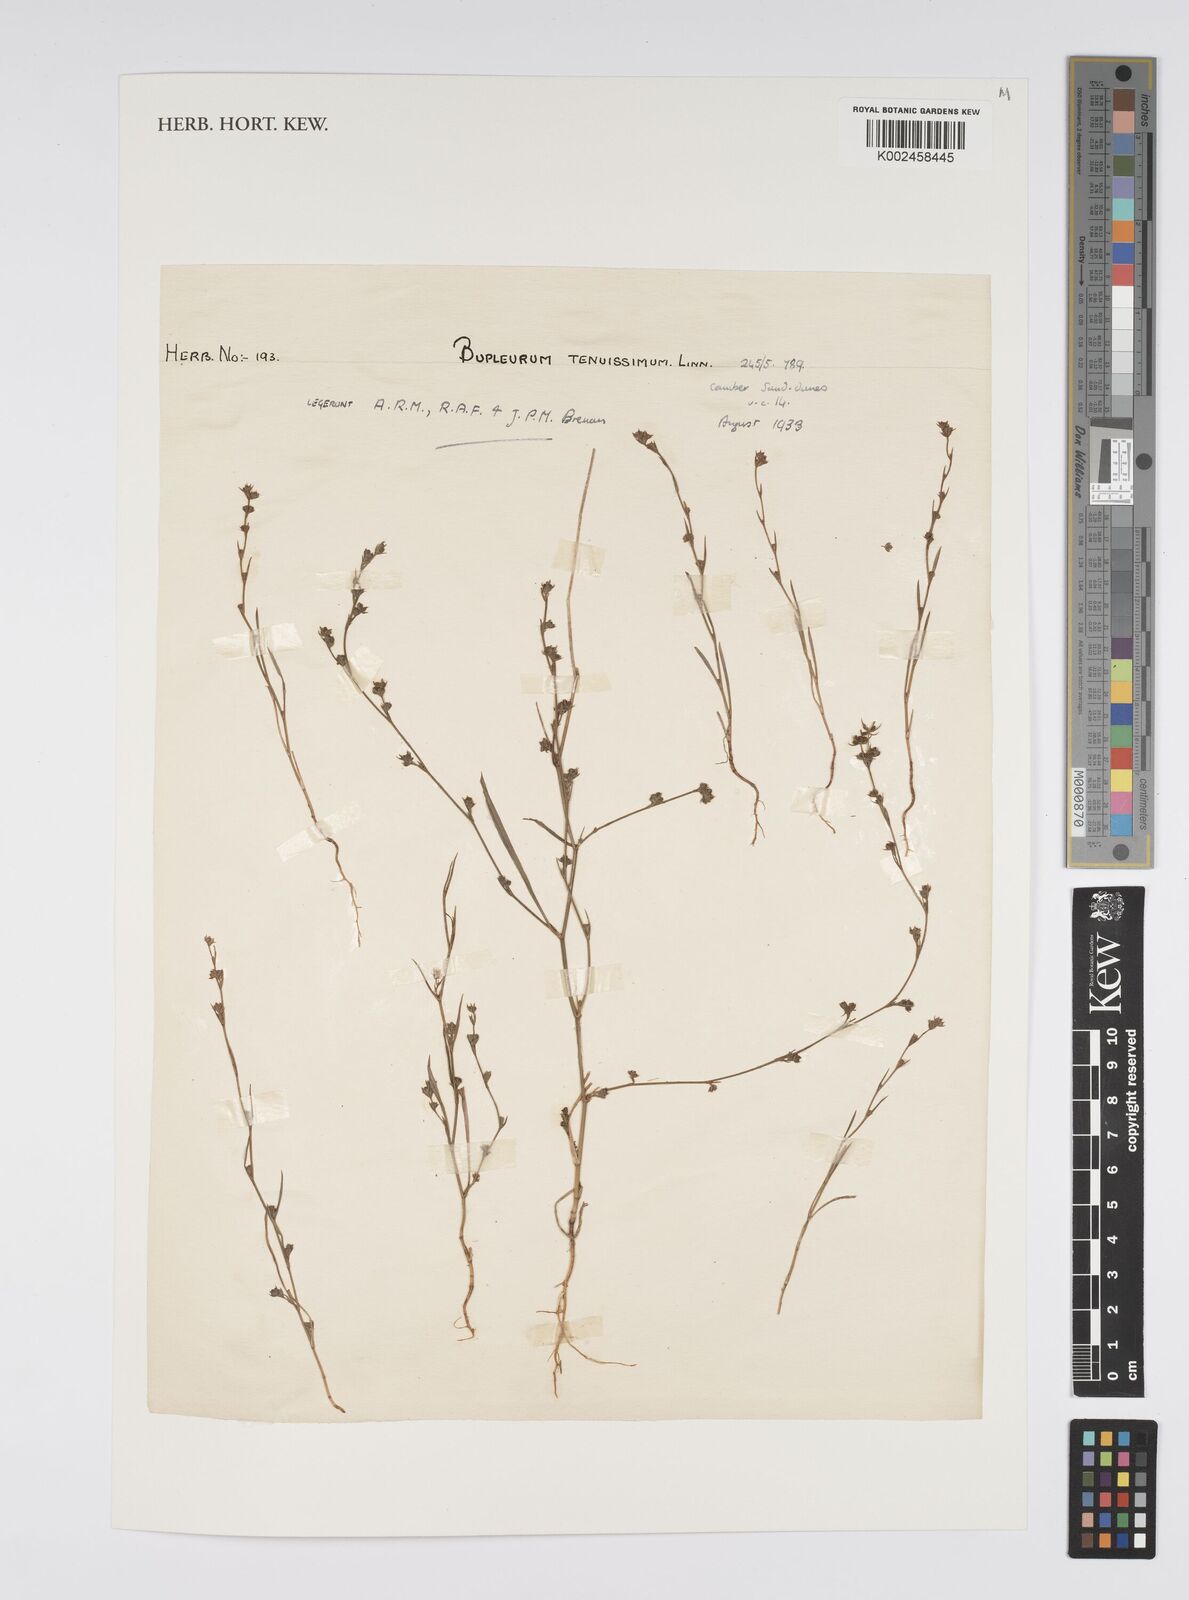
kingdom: Plantae
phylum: Tracheophyta
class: Magnoliopsida
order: Apiales
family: Apiaceae
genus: Bupleurum
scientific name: Bupleurum tenuissimum
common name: Slender hare's-ear
